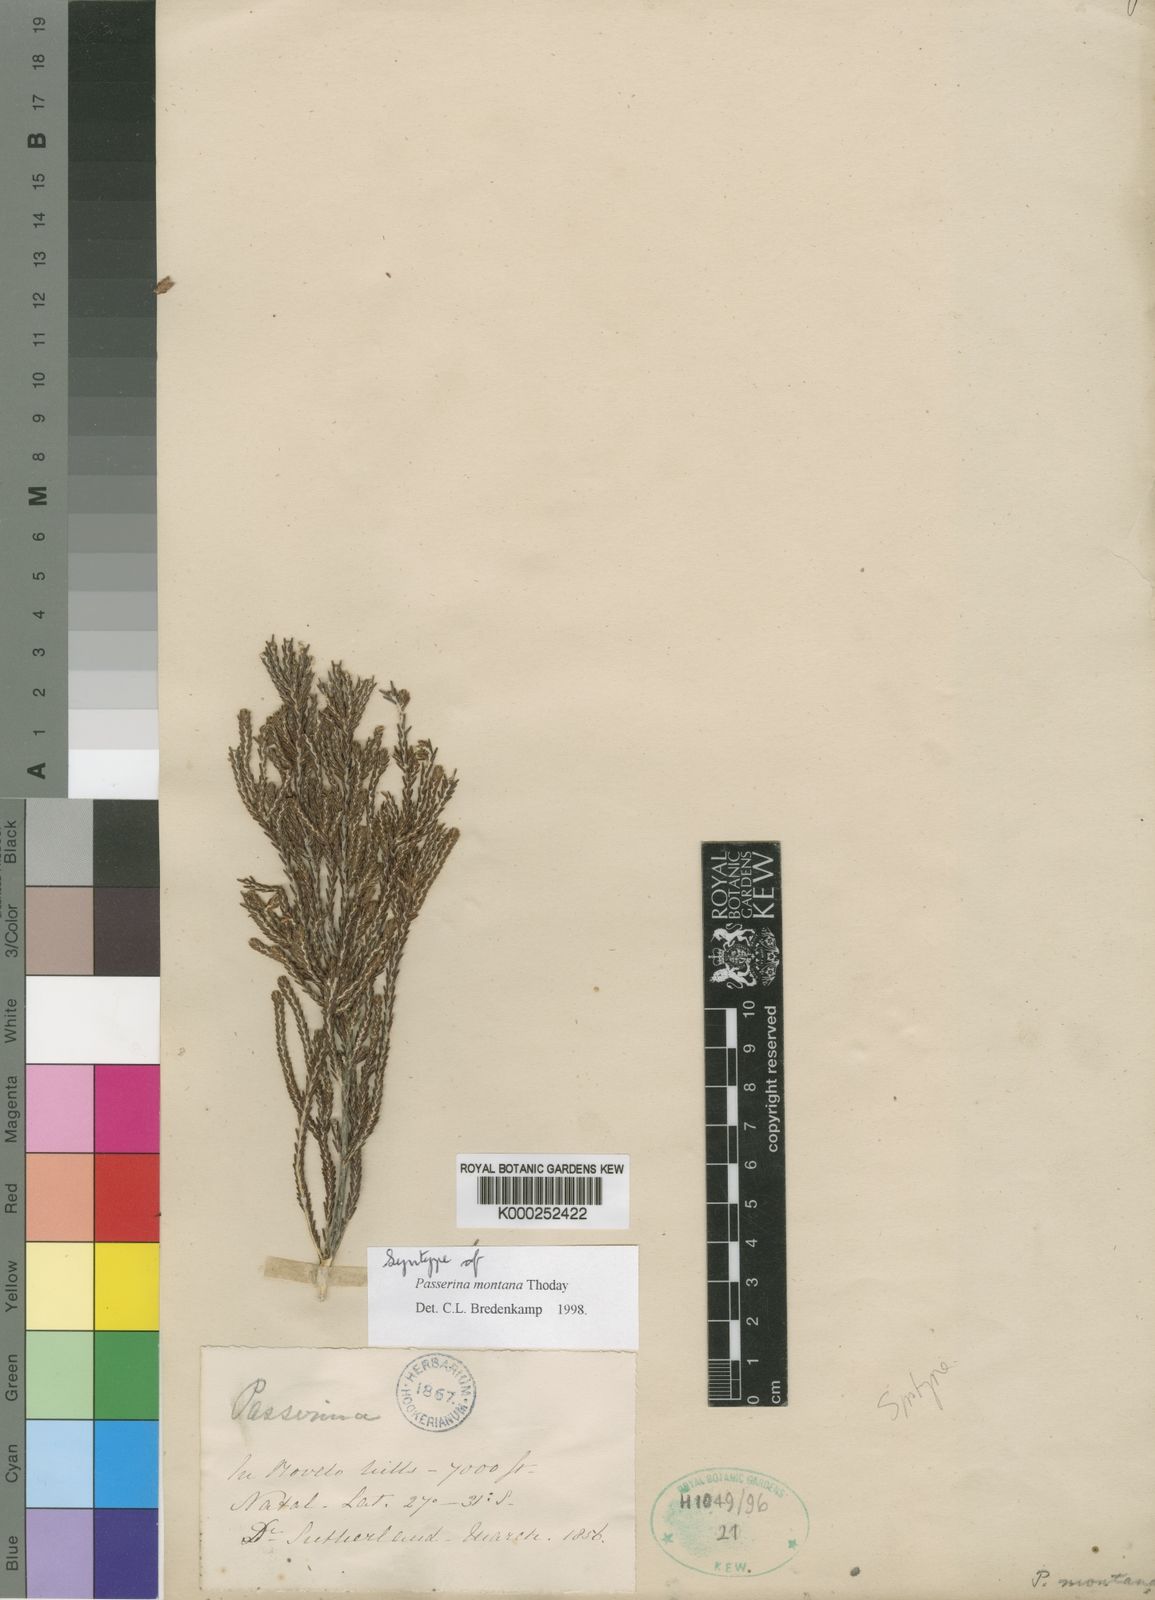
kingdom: Plantae
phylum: Tracheophyta
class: Magnoliopsida
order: Malvales
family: Thymelaeaceae
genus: Passerina
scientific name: Passerina montana
